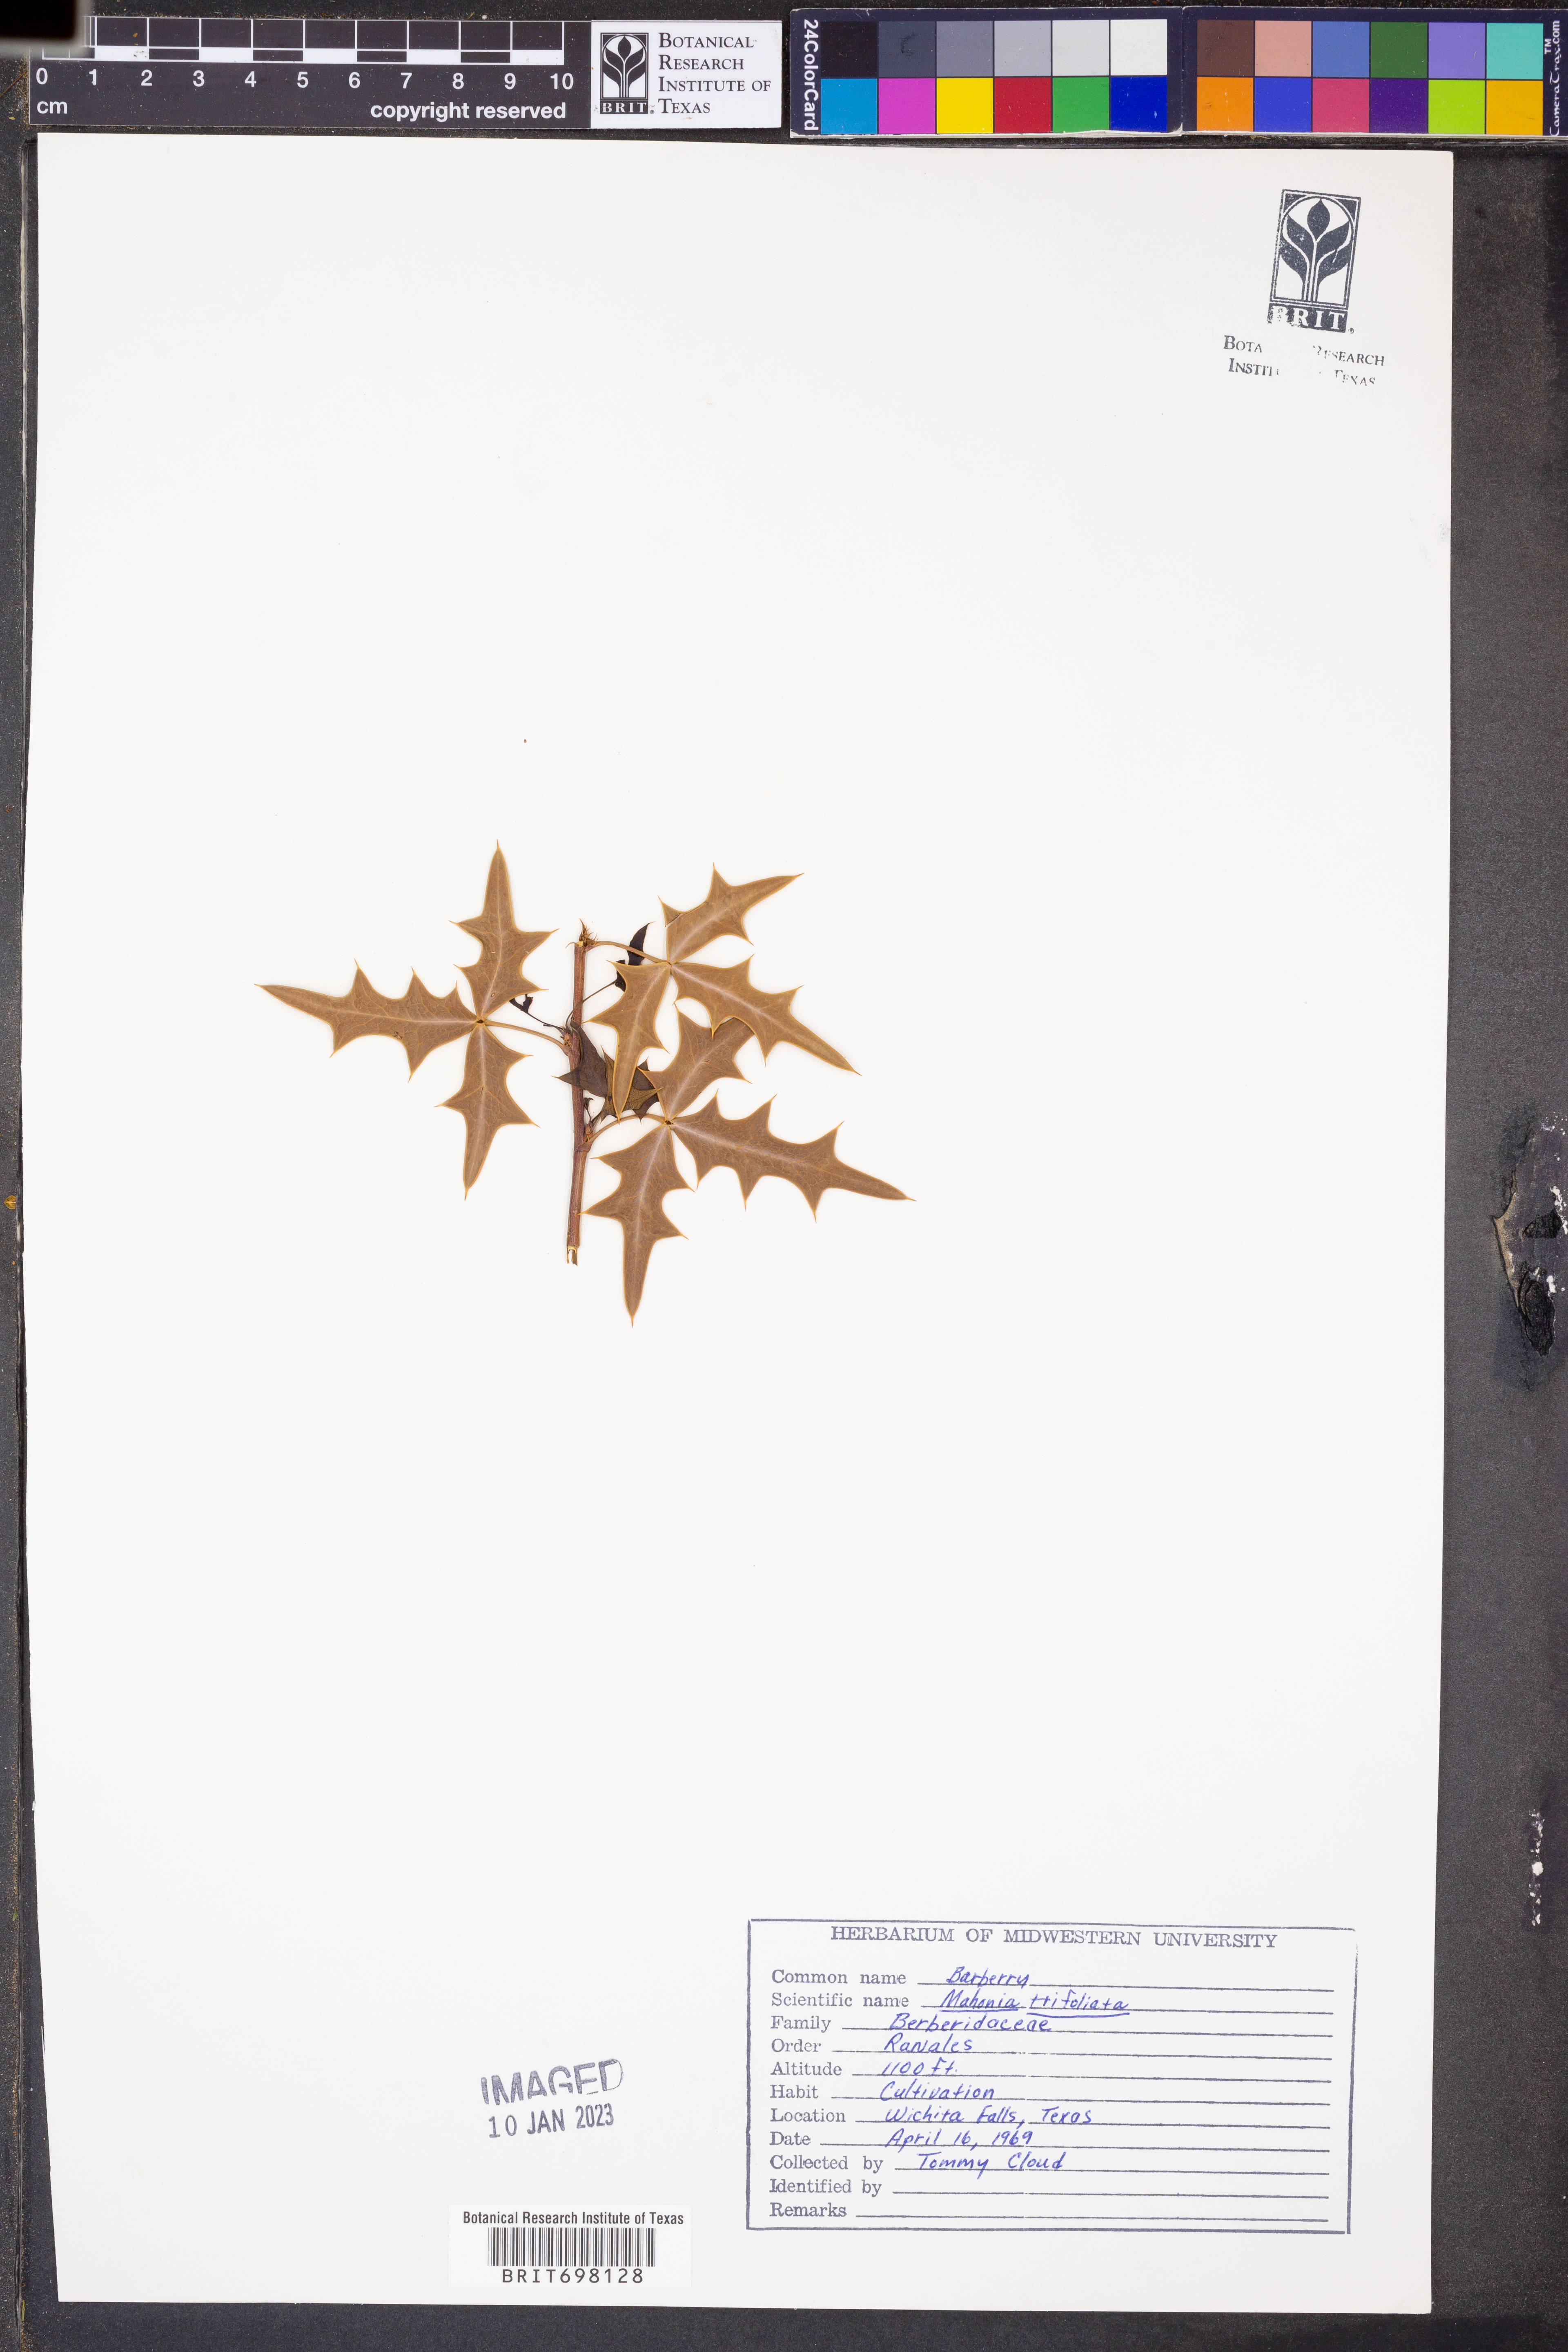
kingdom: Plantae
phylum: Tracheophyta
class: Magnoliopsida
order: Ranunculales
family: Berberidaceae
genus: Mahonia
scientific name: Mahonia trifolia
